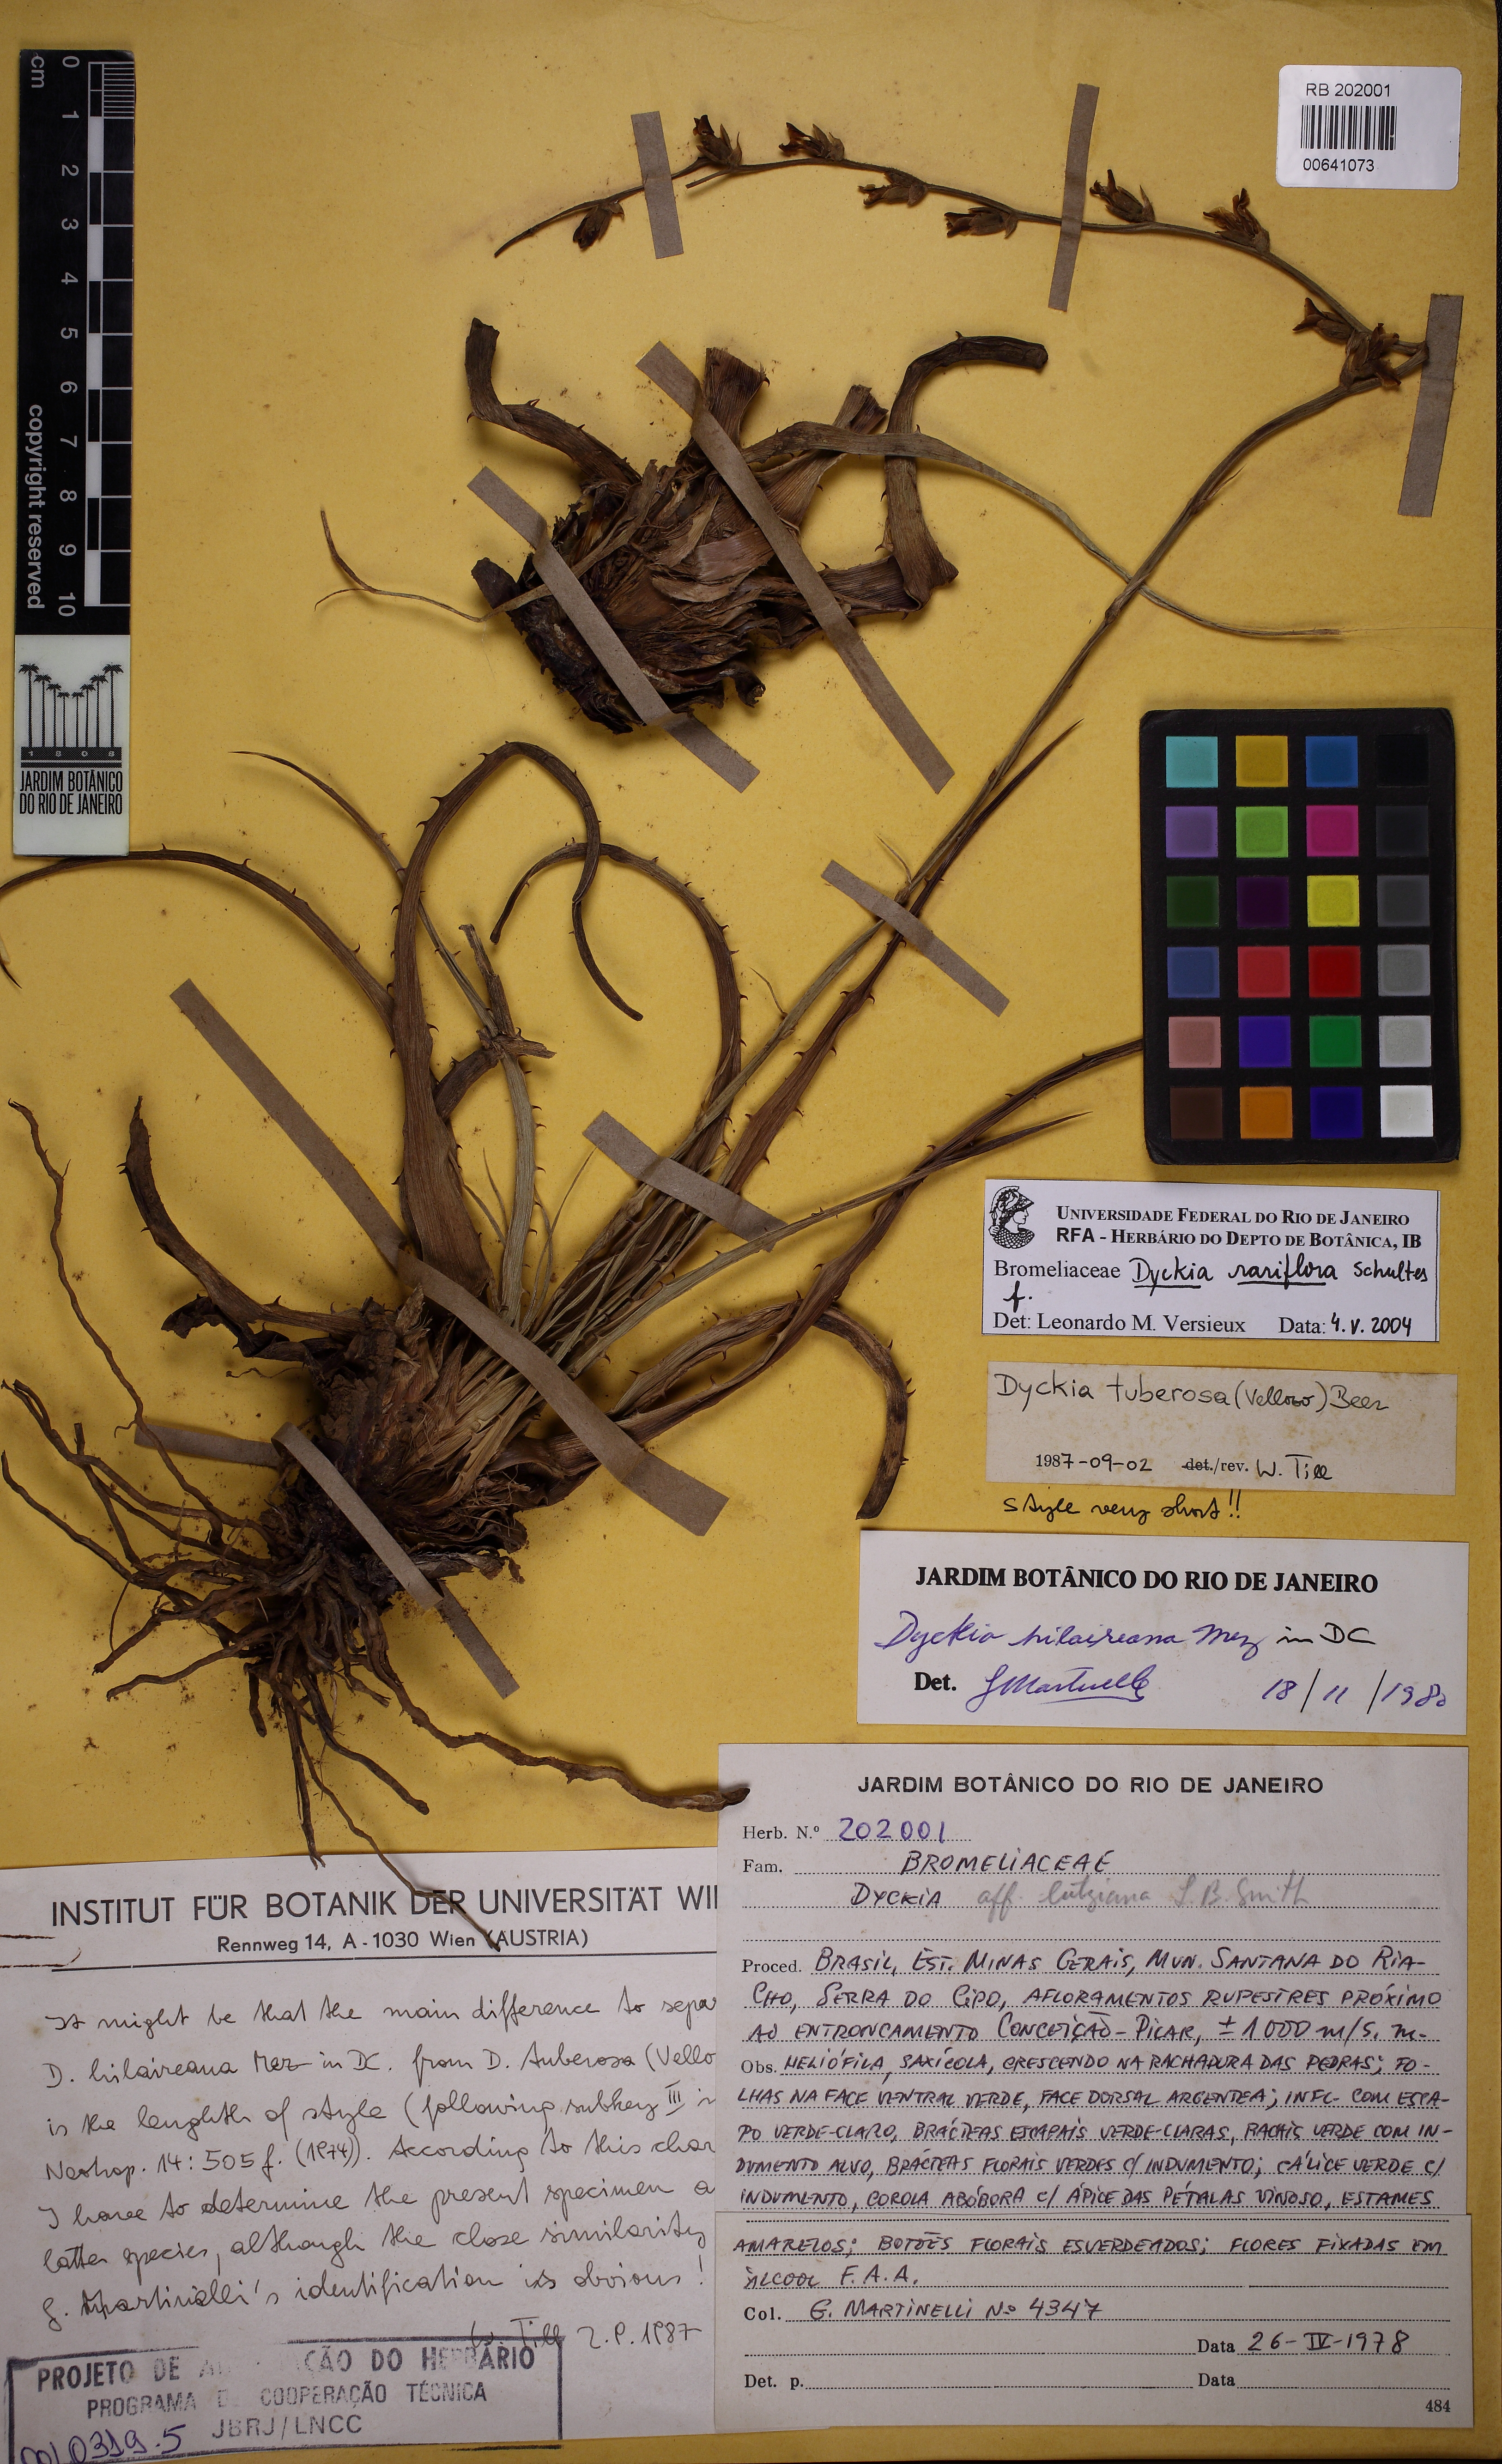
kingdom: Plantae
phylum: Tracheophyta
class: Liliopsida
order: Poales
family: Bromeliaceae
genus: Dyckia
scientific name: Dyckia tenebrosa
